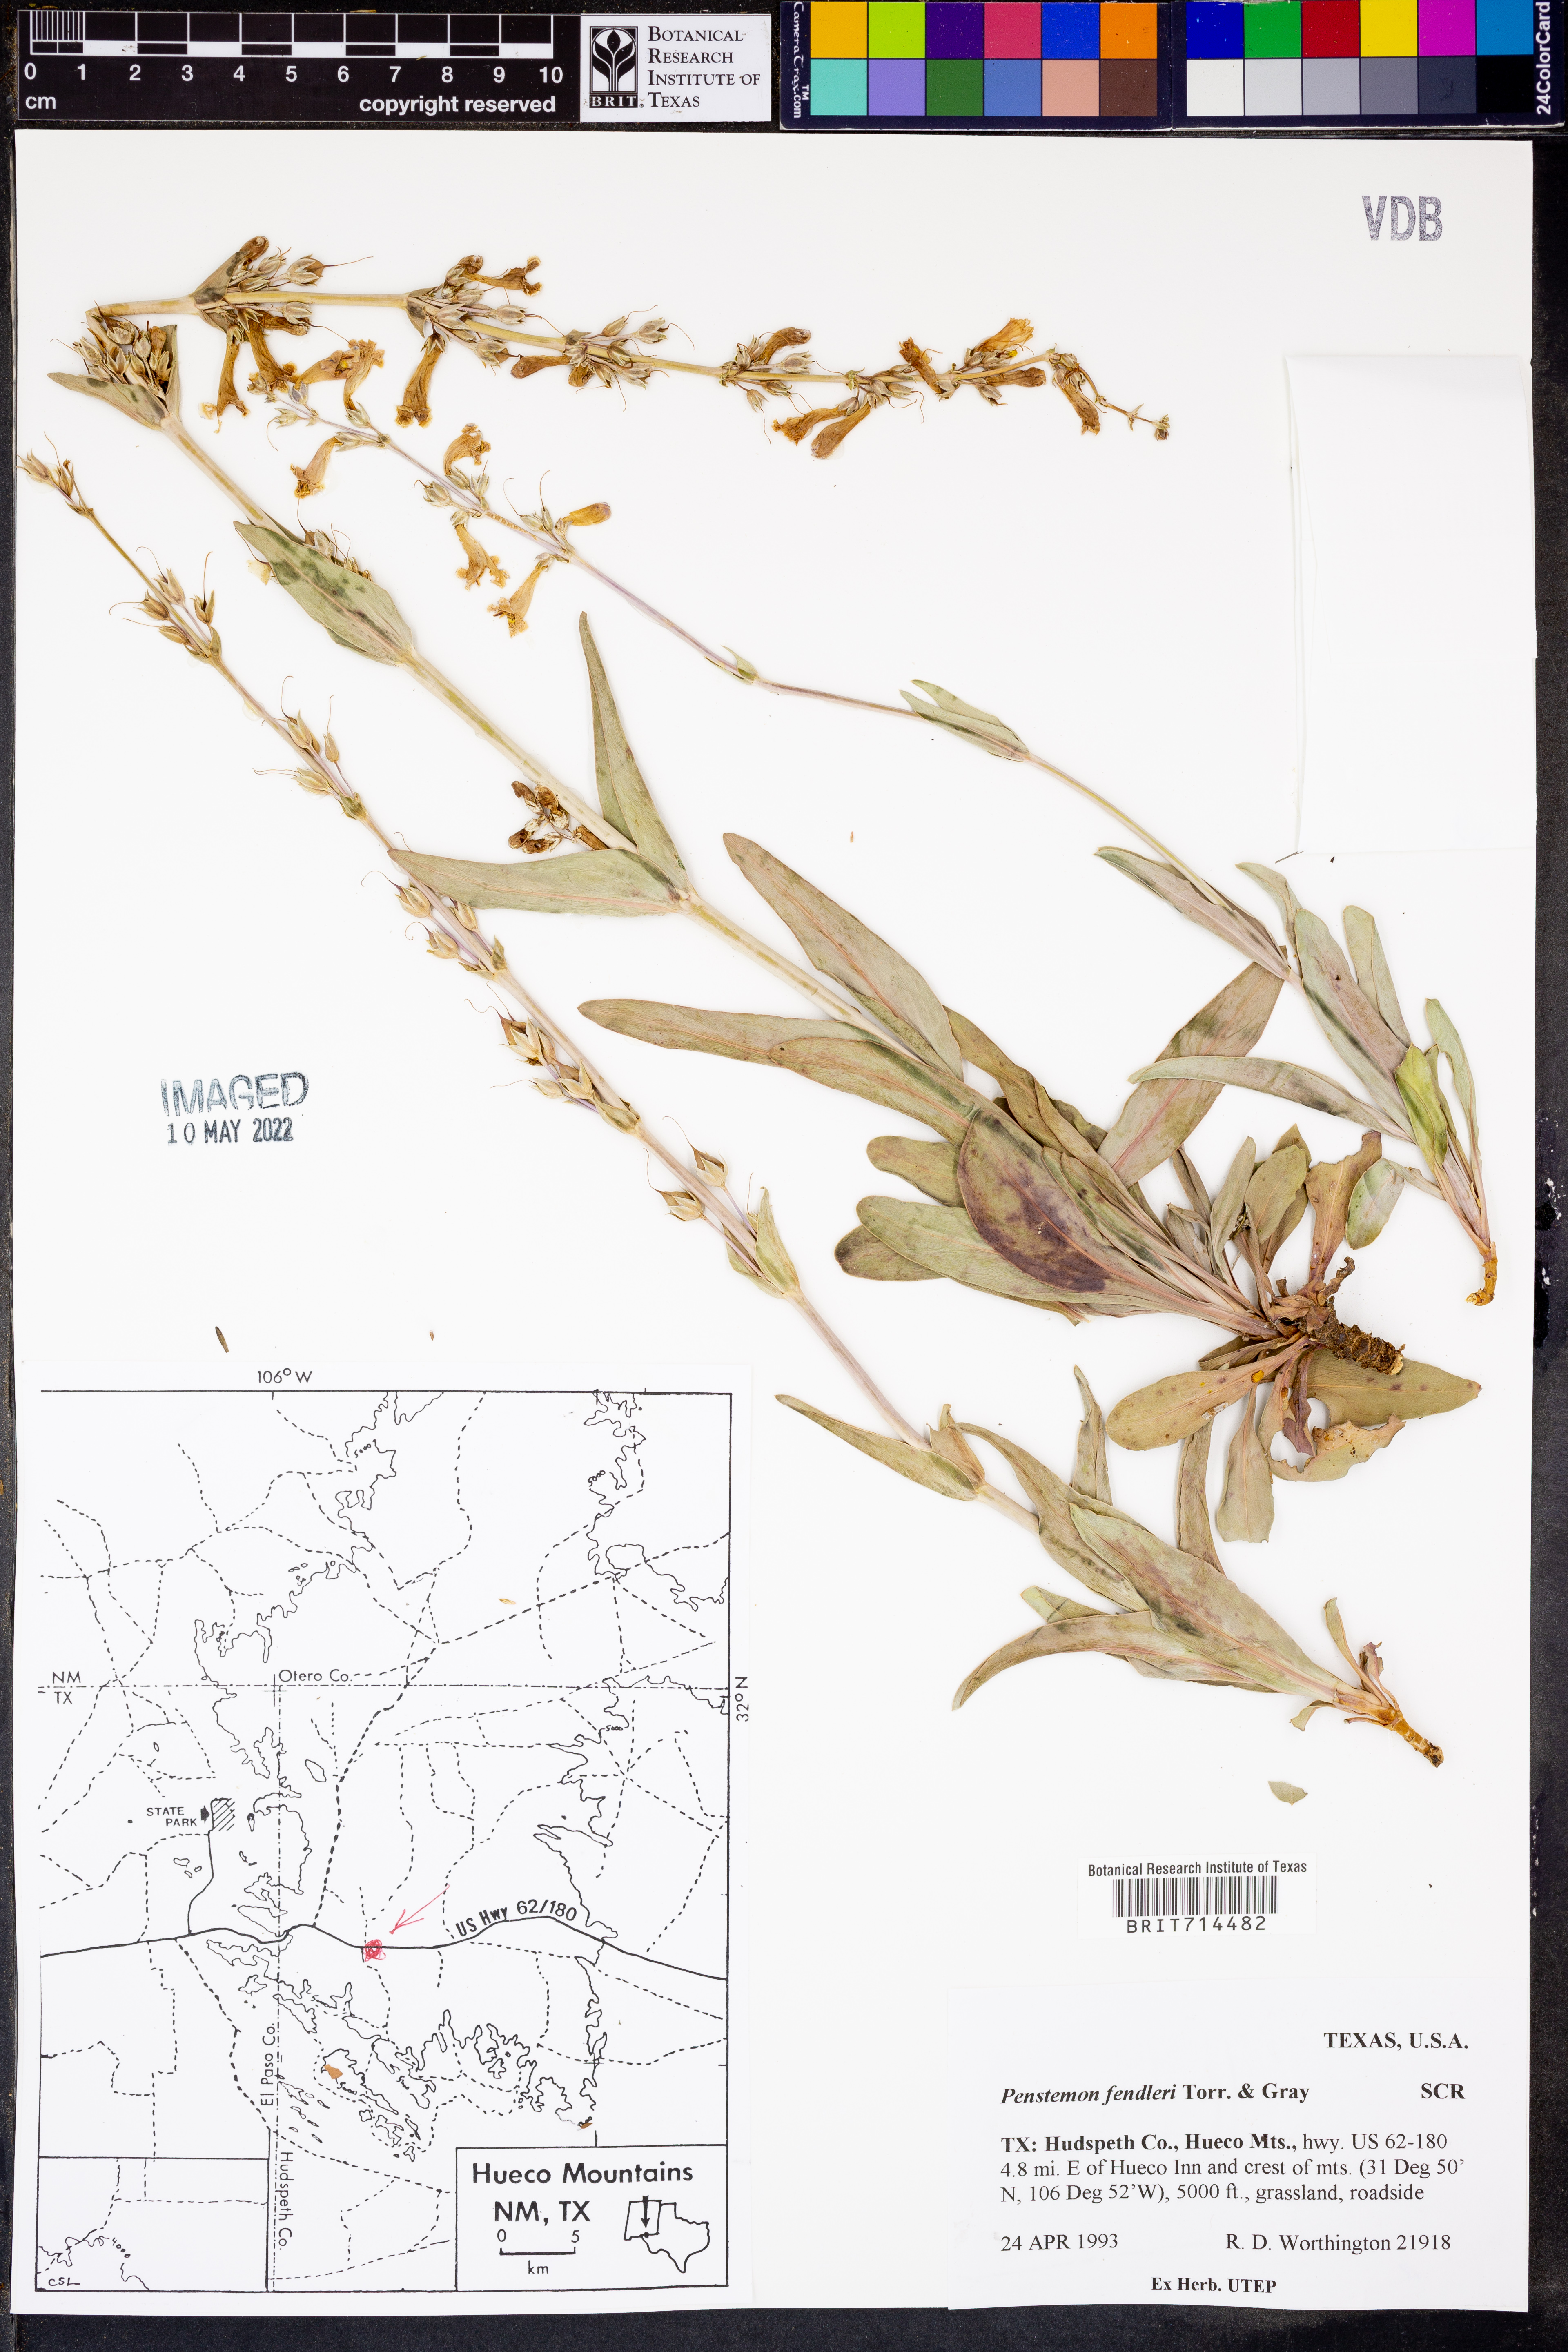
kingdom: Plantae
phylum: Tracheophyta
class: Magnoliopsida
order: Lamiales
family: Plantaginaceae
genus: Penstemon
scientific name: Penstemon fendleri
